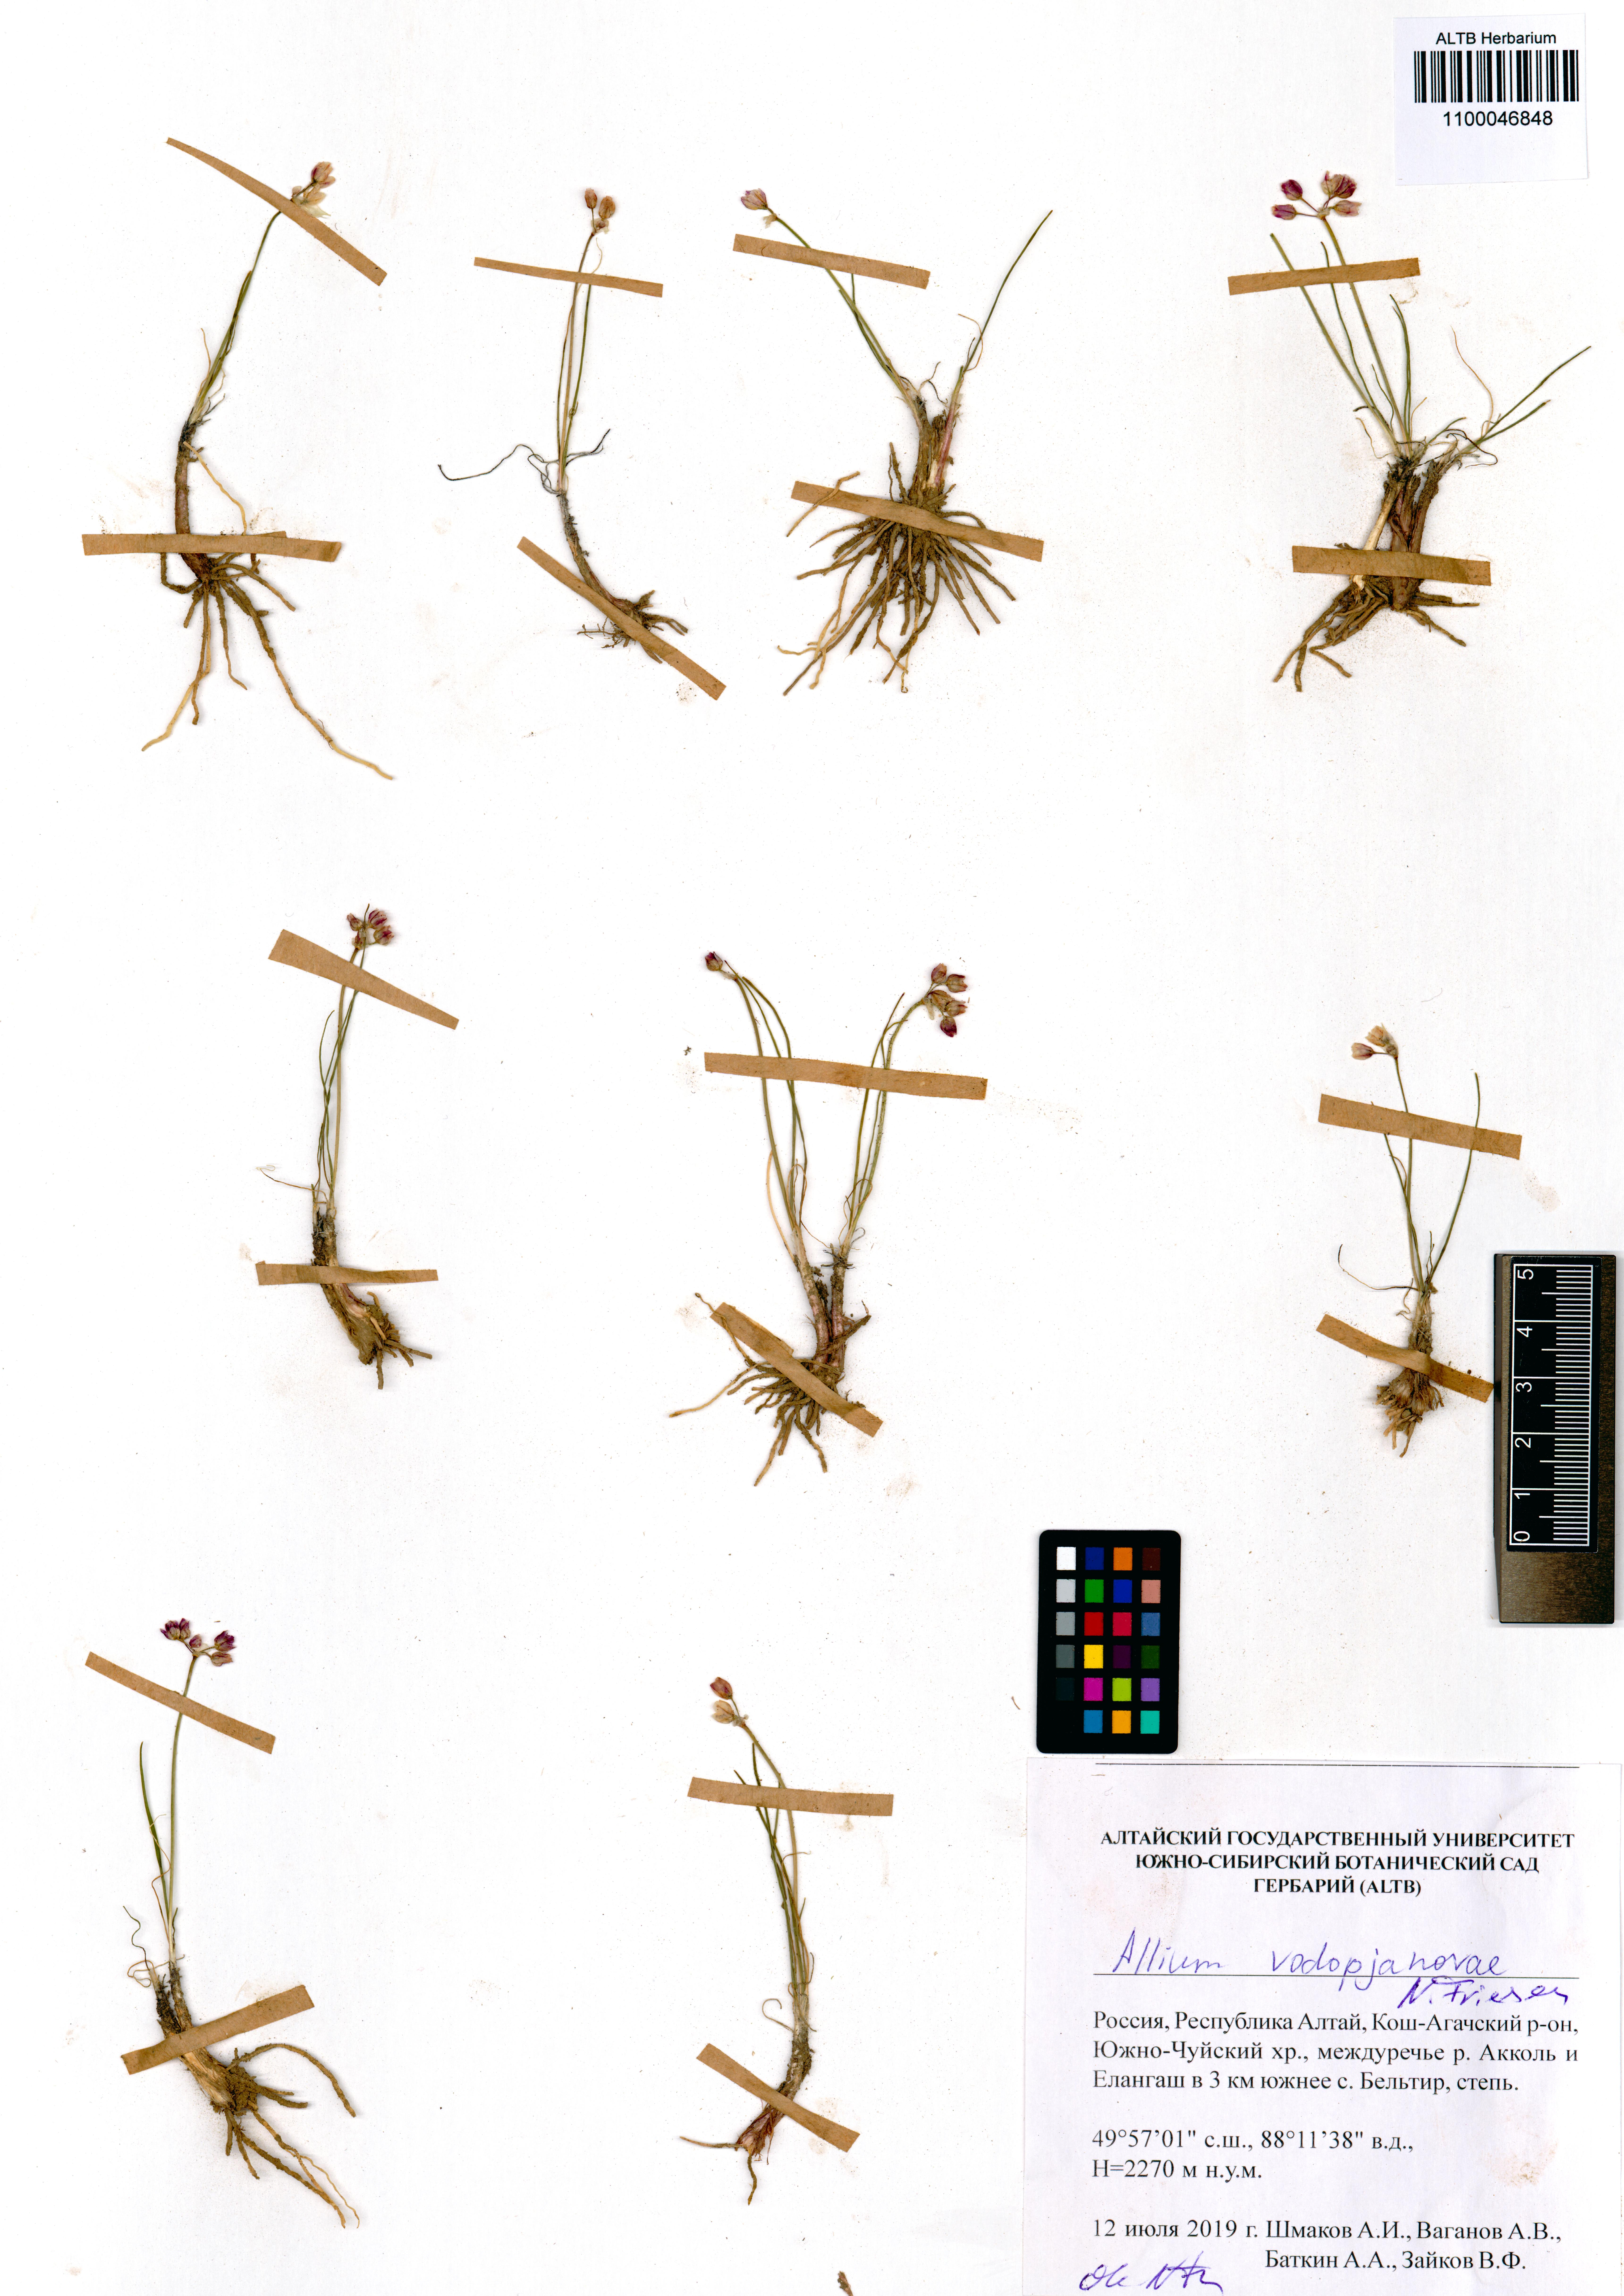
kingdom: Plantae
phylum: Tracheophyta
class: Liliopsida
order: Asparagales
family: Amaryllidaceae
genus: Allium
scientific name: Allium vodopjanovae
